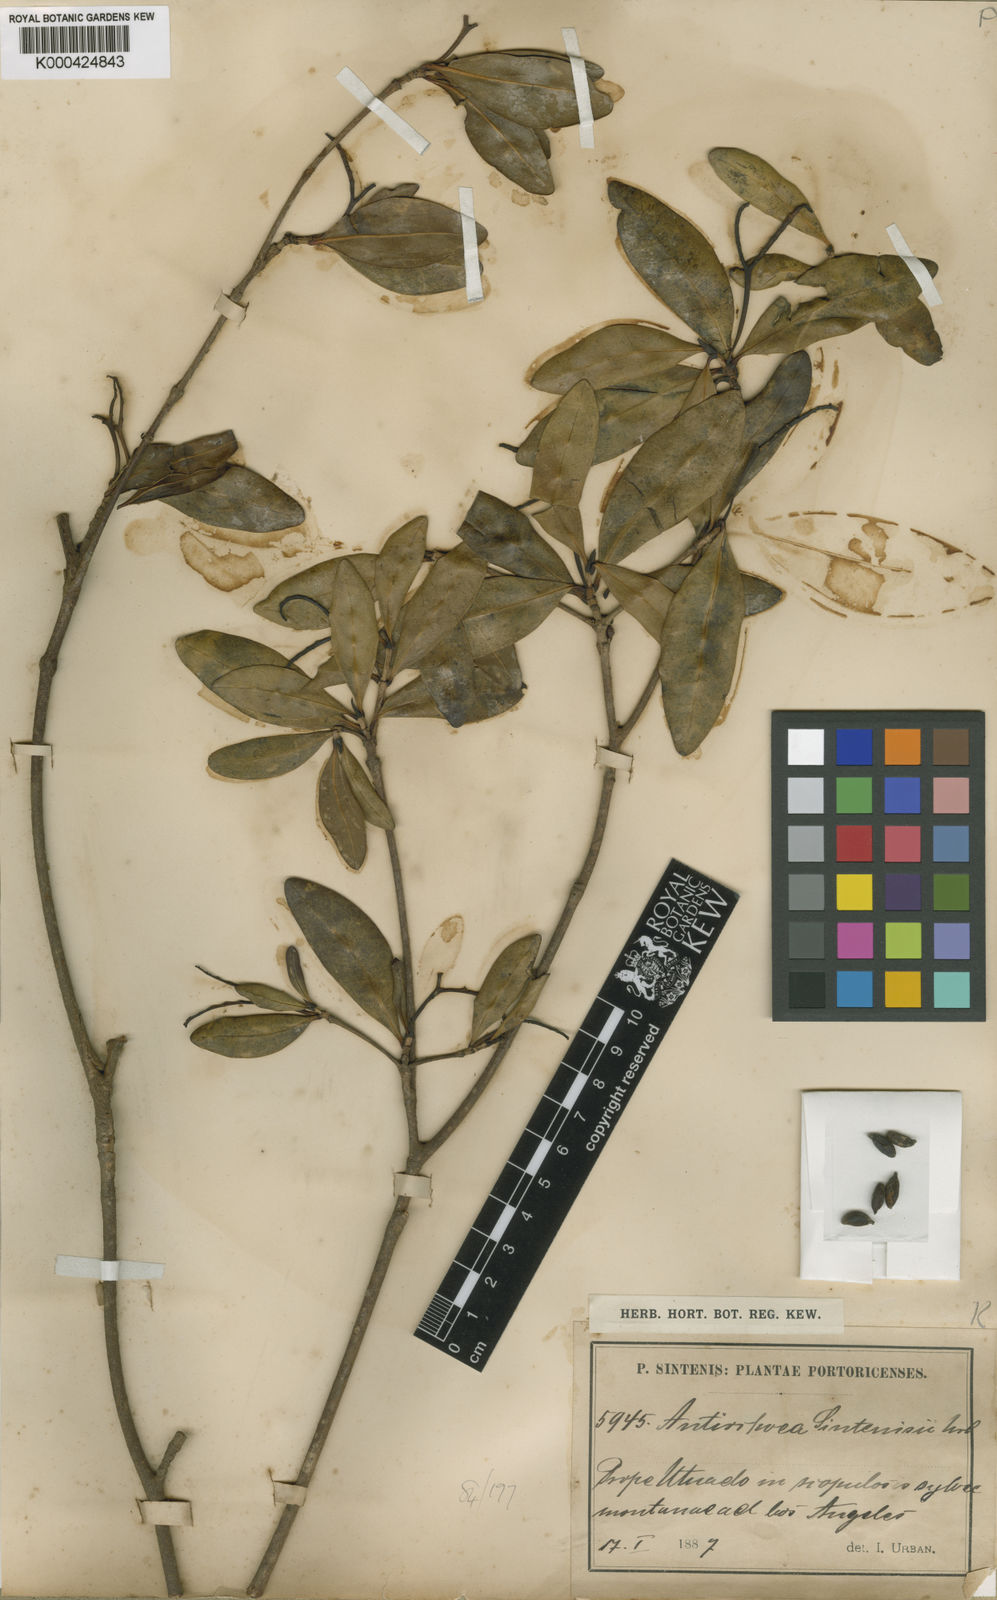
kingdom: Plantae
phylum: Tracheophyta
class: Magnoliopsida
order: Gentianales
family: Rubiaceae
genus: Stenostomum
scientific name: Stenostomum sintenisii
